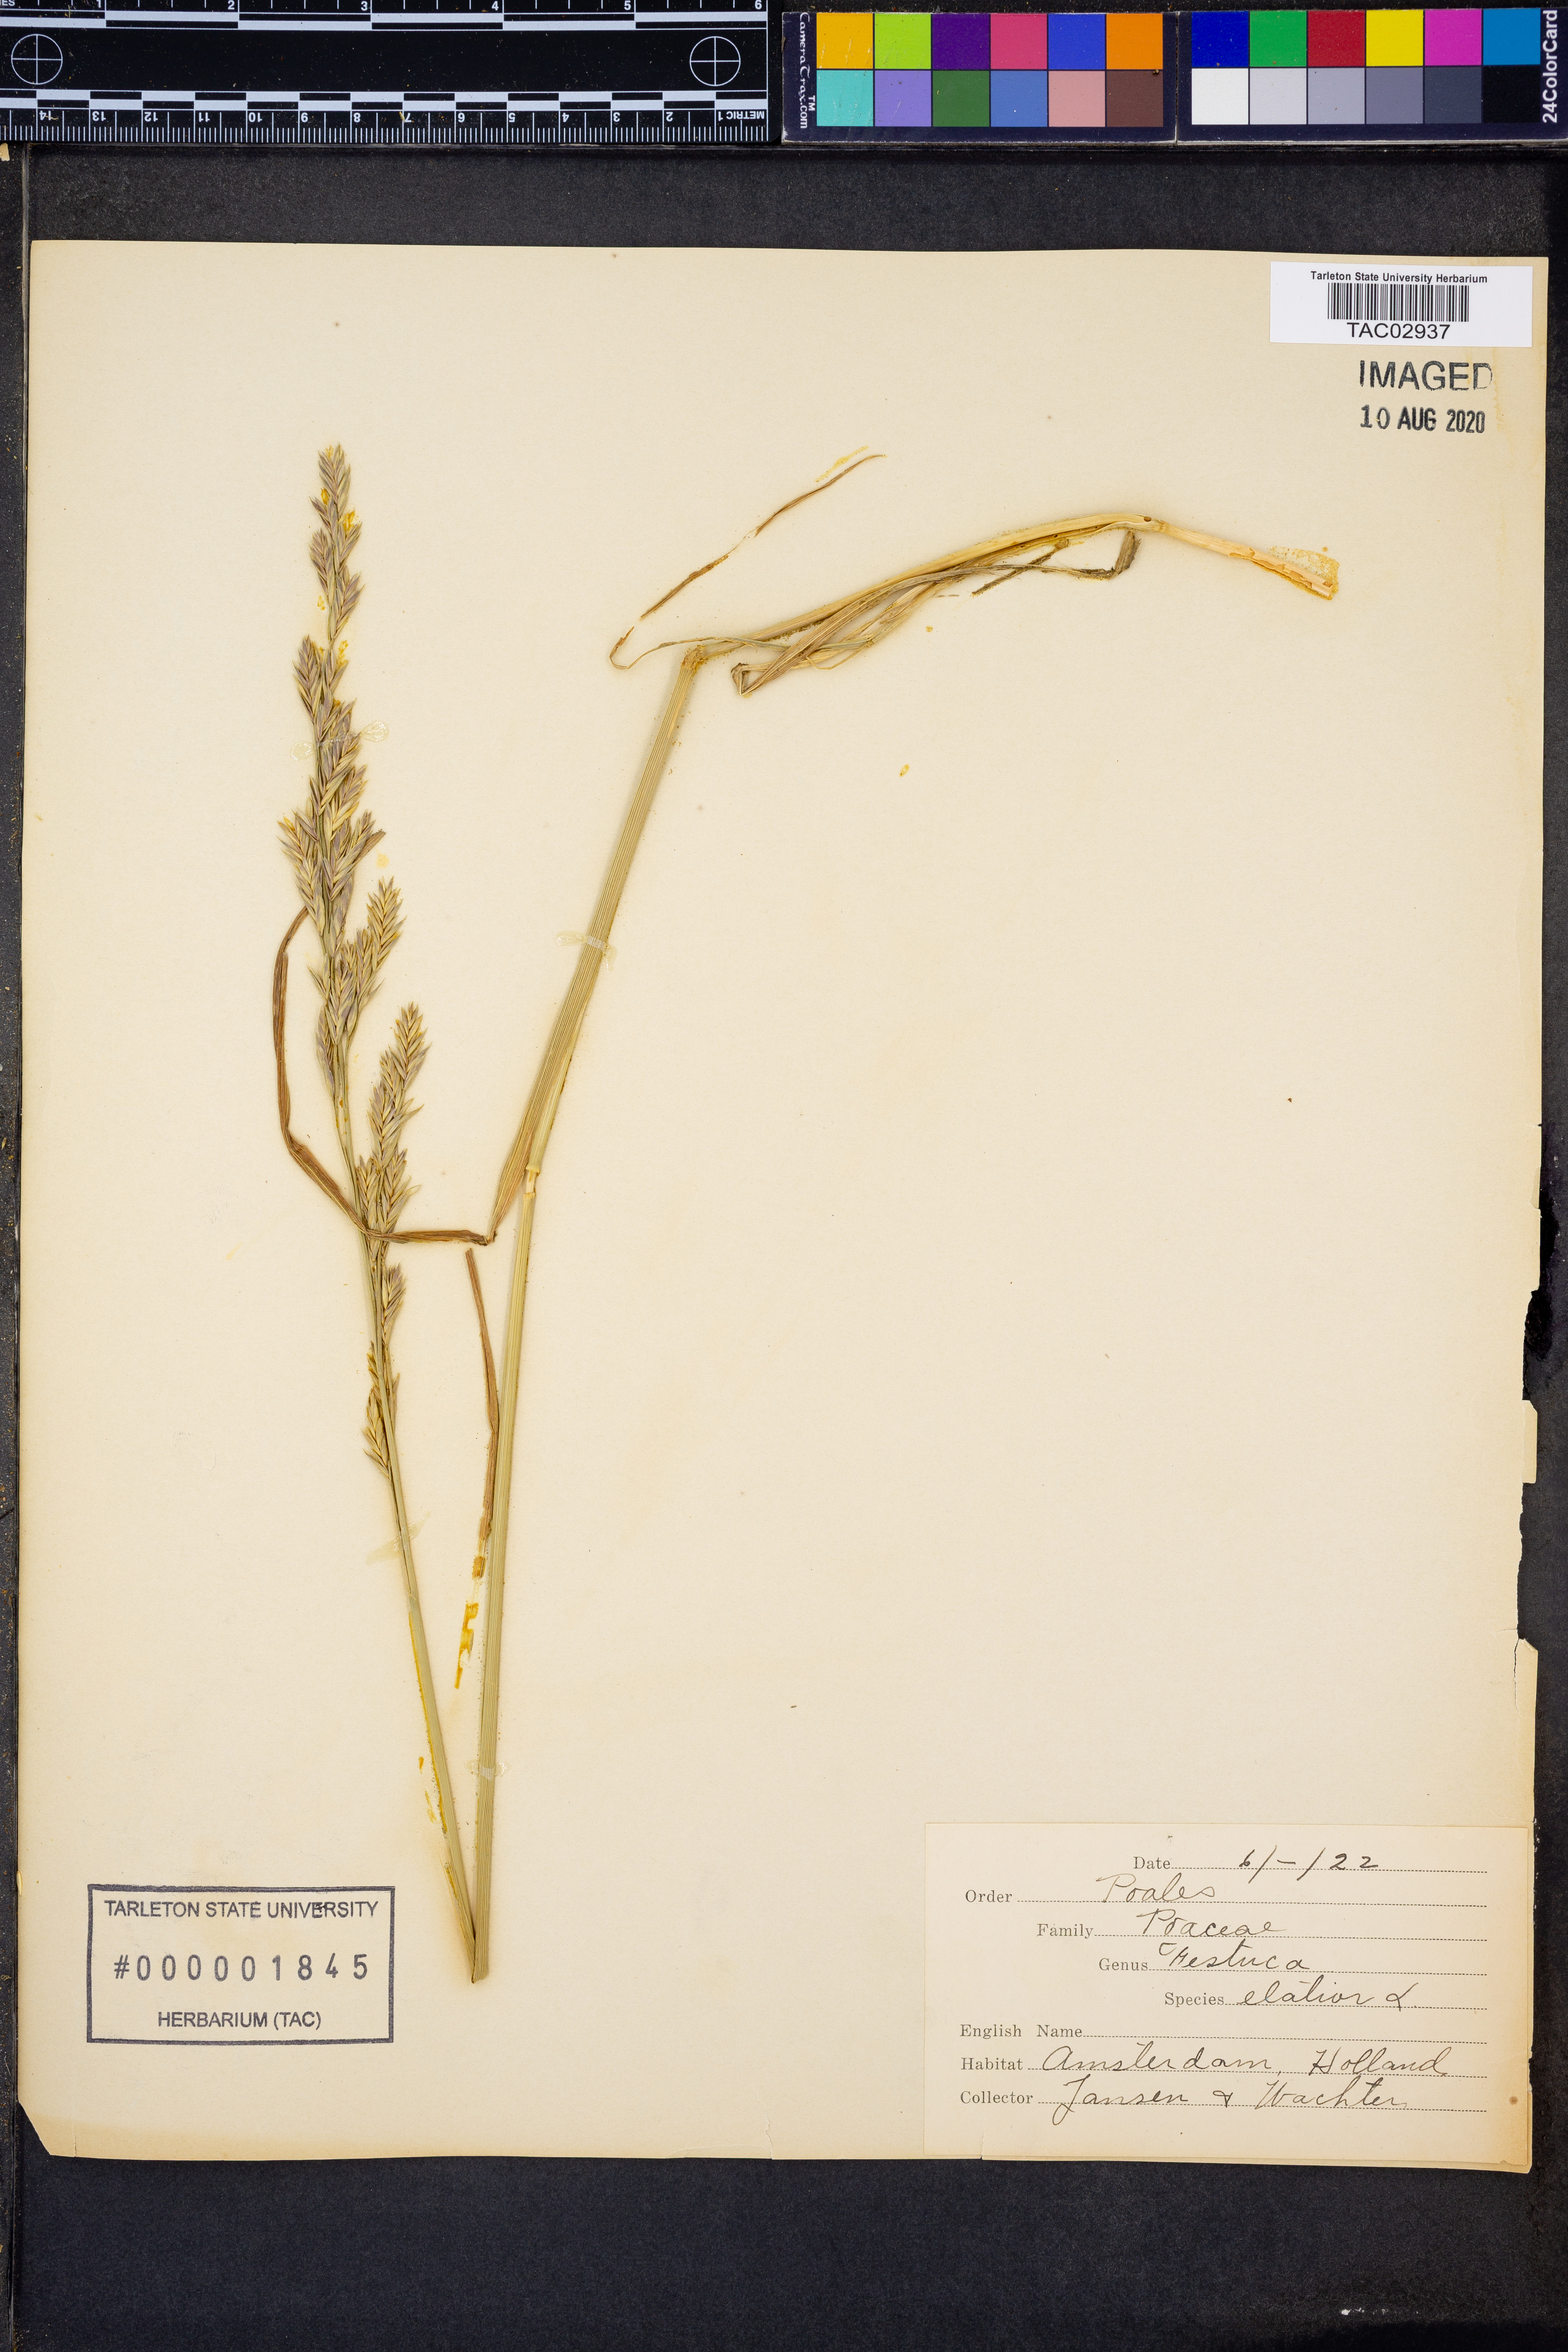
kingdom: Plantae
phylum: Tracheophyta
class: Liliopsida
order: Poales
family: Poaceae
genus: Lolium
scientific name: Lolium arundinaceum
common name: Reed fescue
